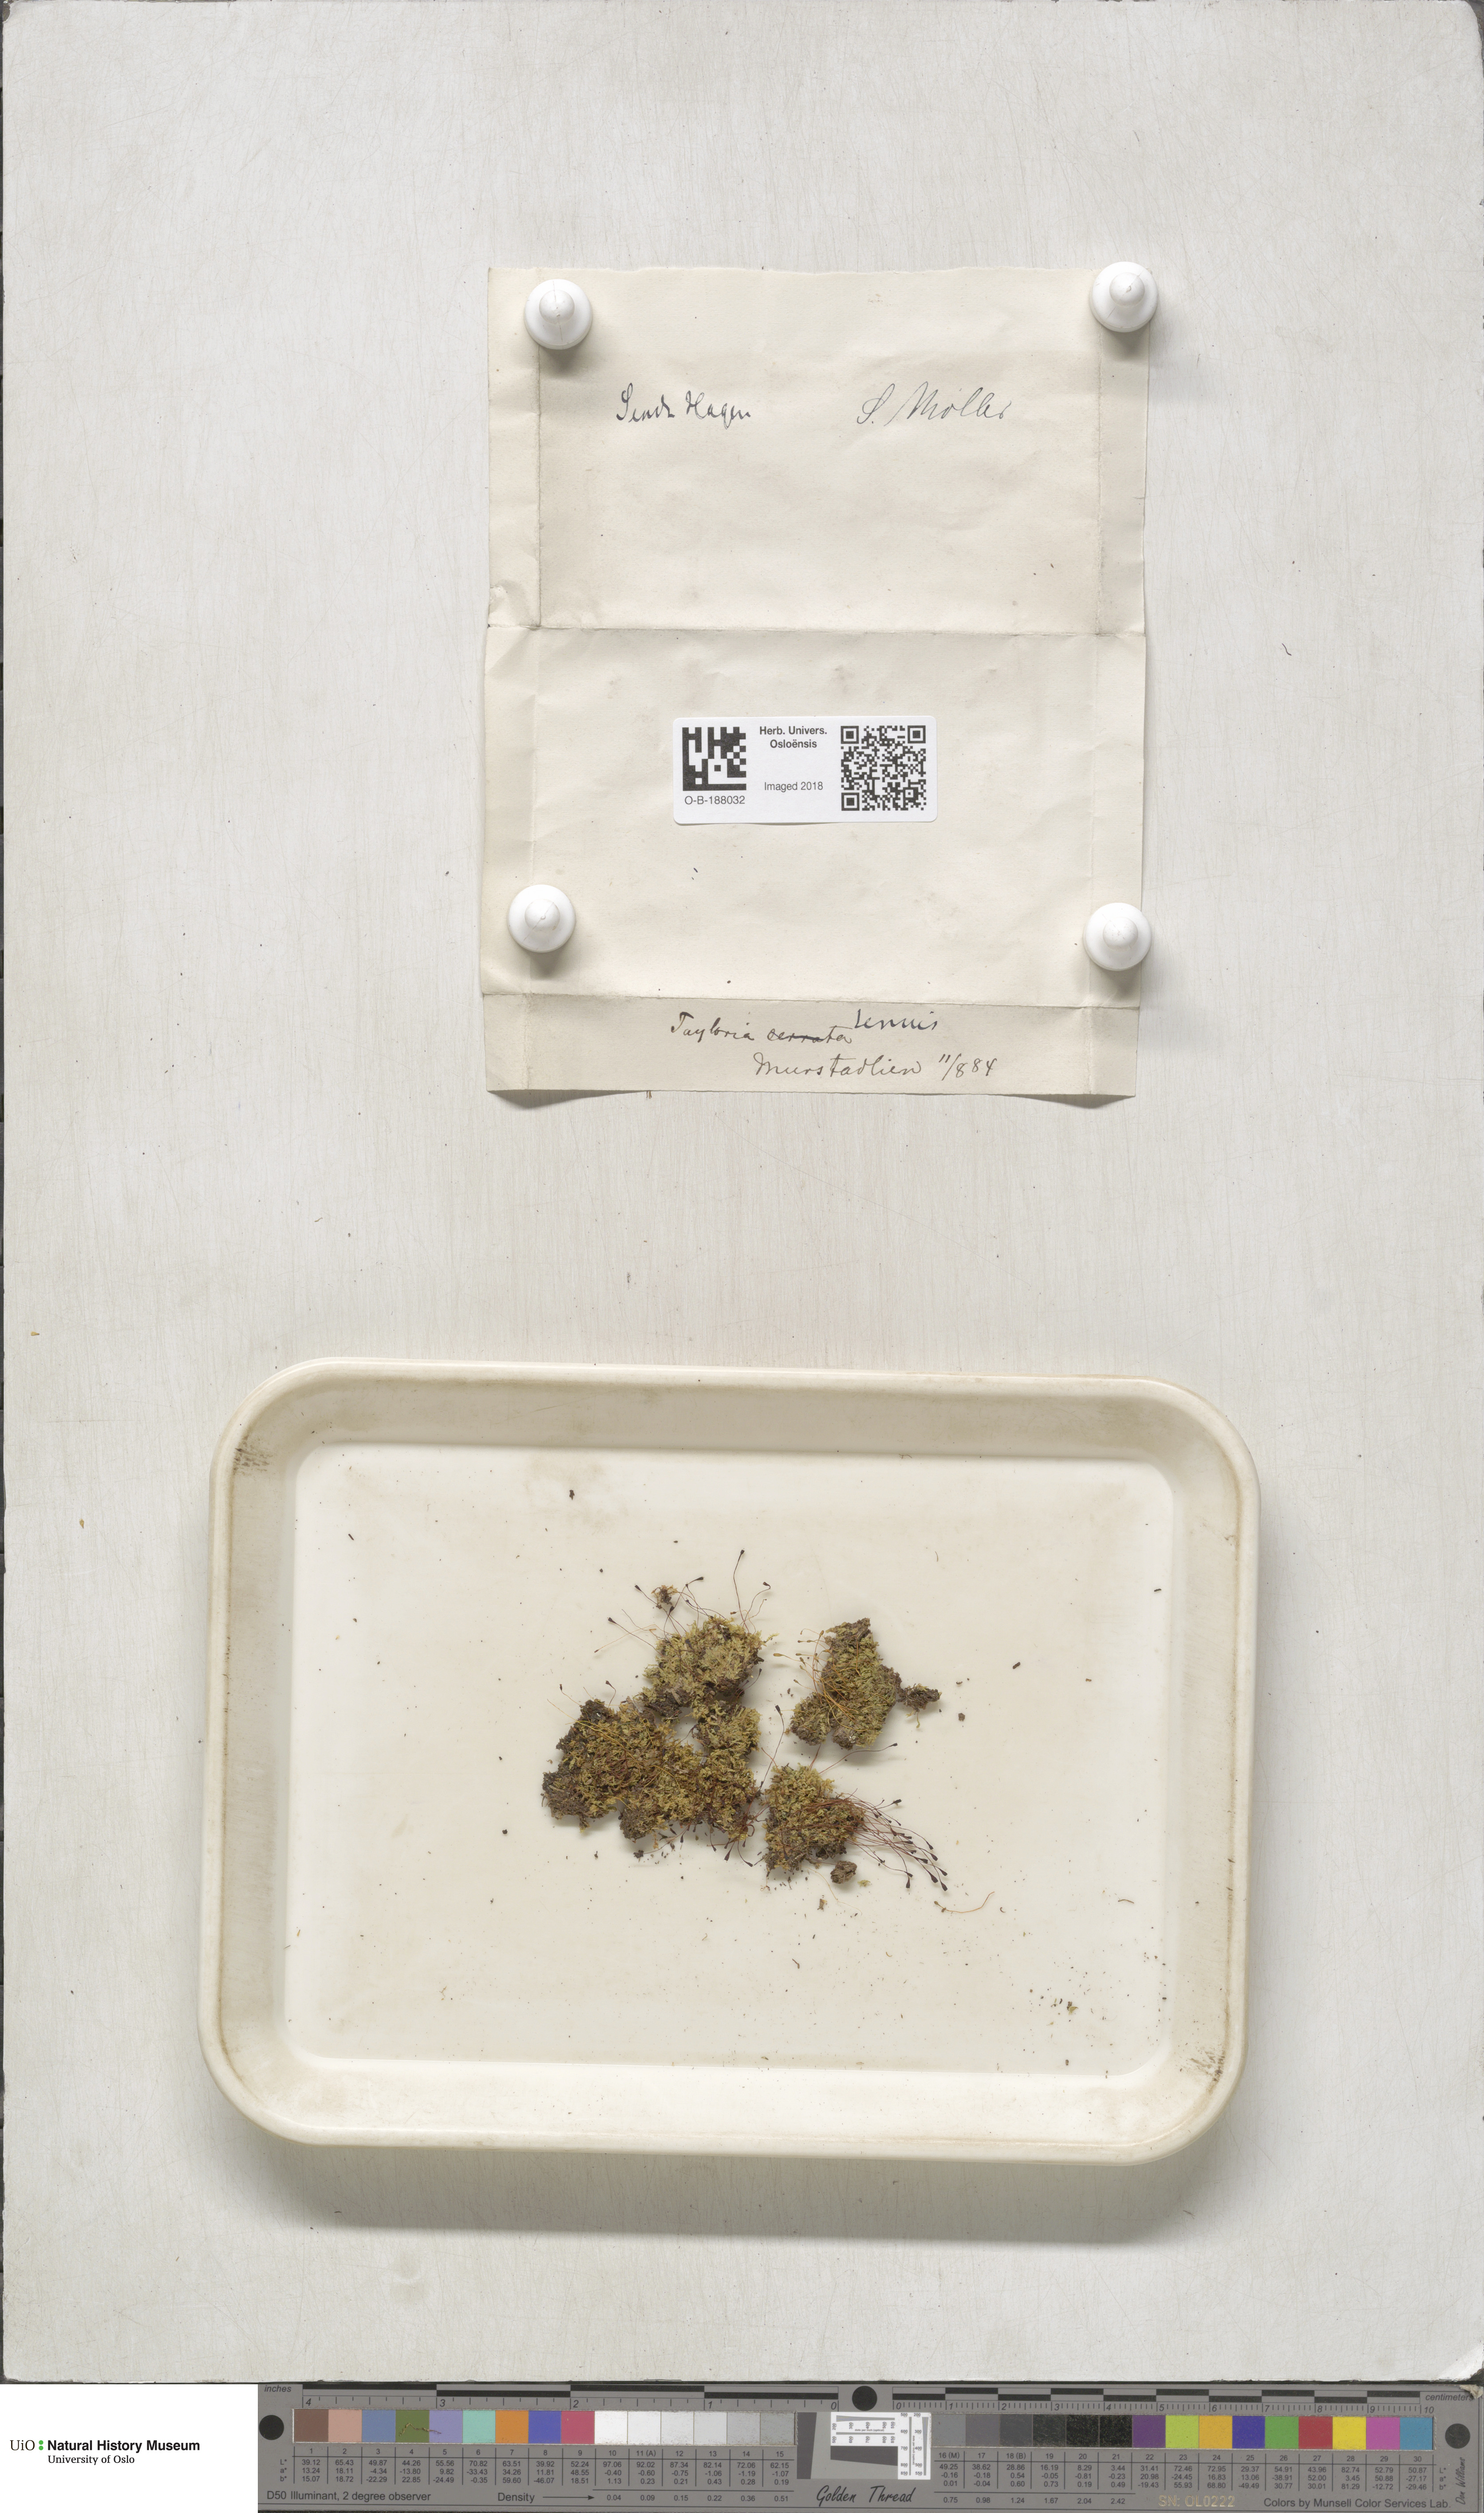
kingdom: Plantae
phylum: Bryophyta
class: Bryopsida
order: Splachnales
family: Splachnaceae
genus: Tayloria
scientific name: Tayloria tenuis
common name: Slender gland-moss
